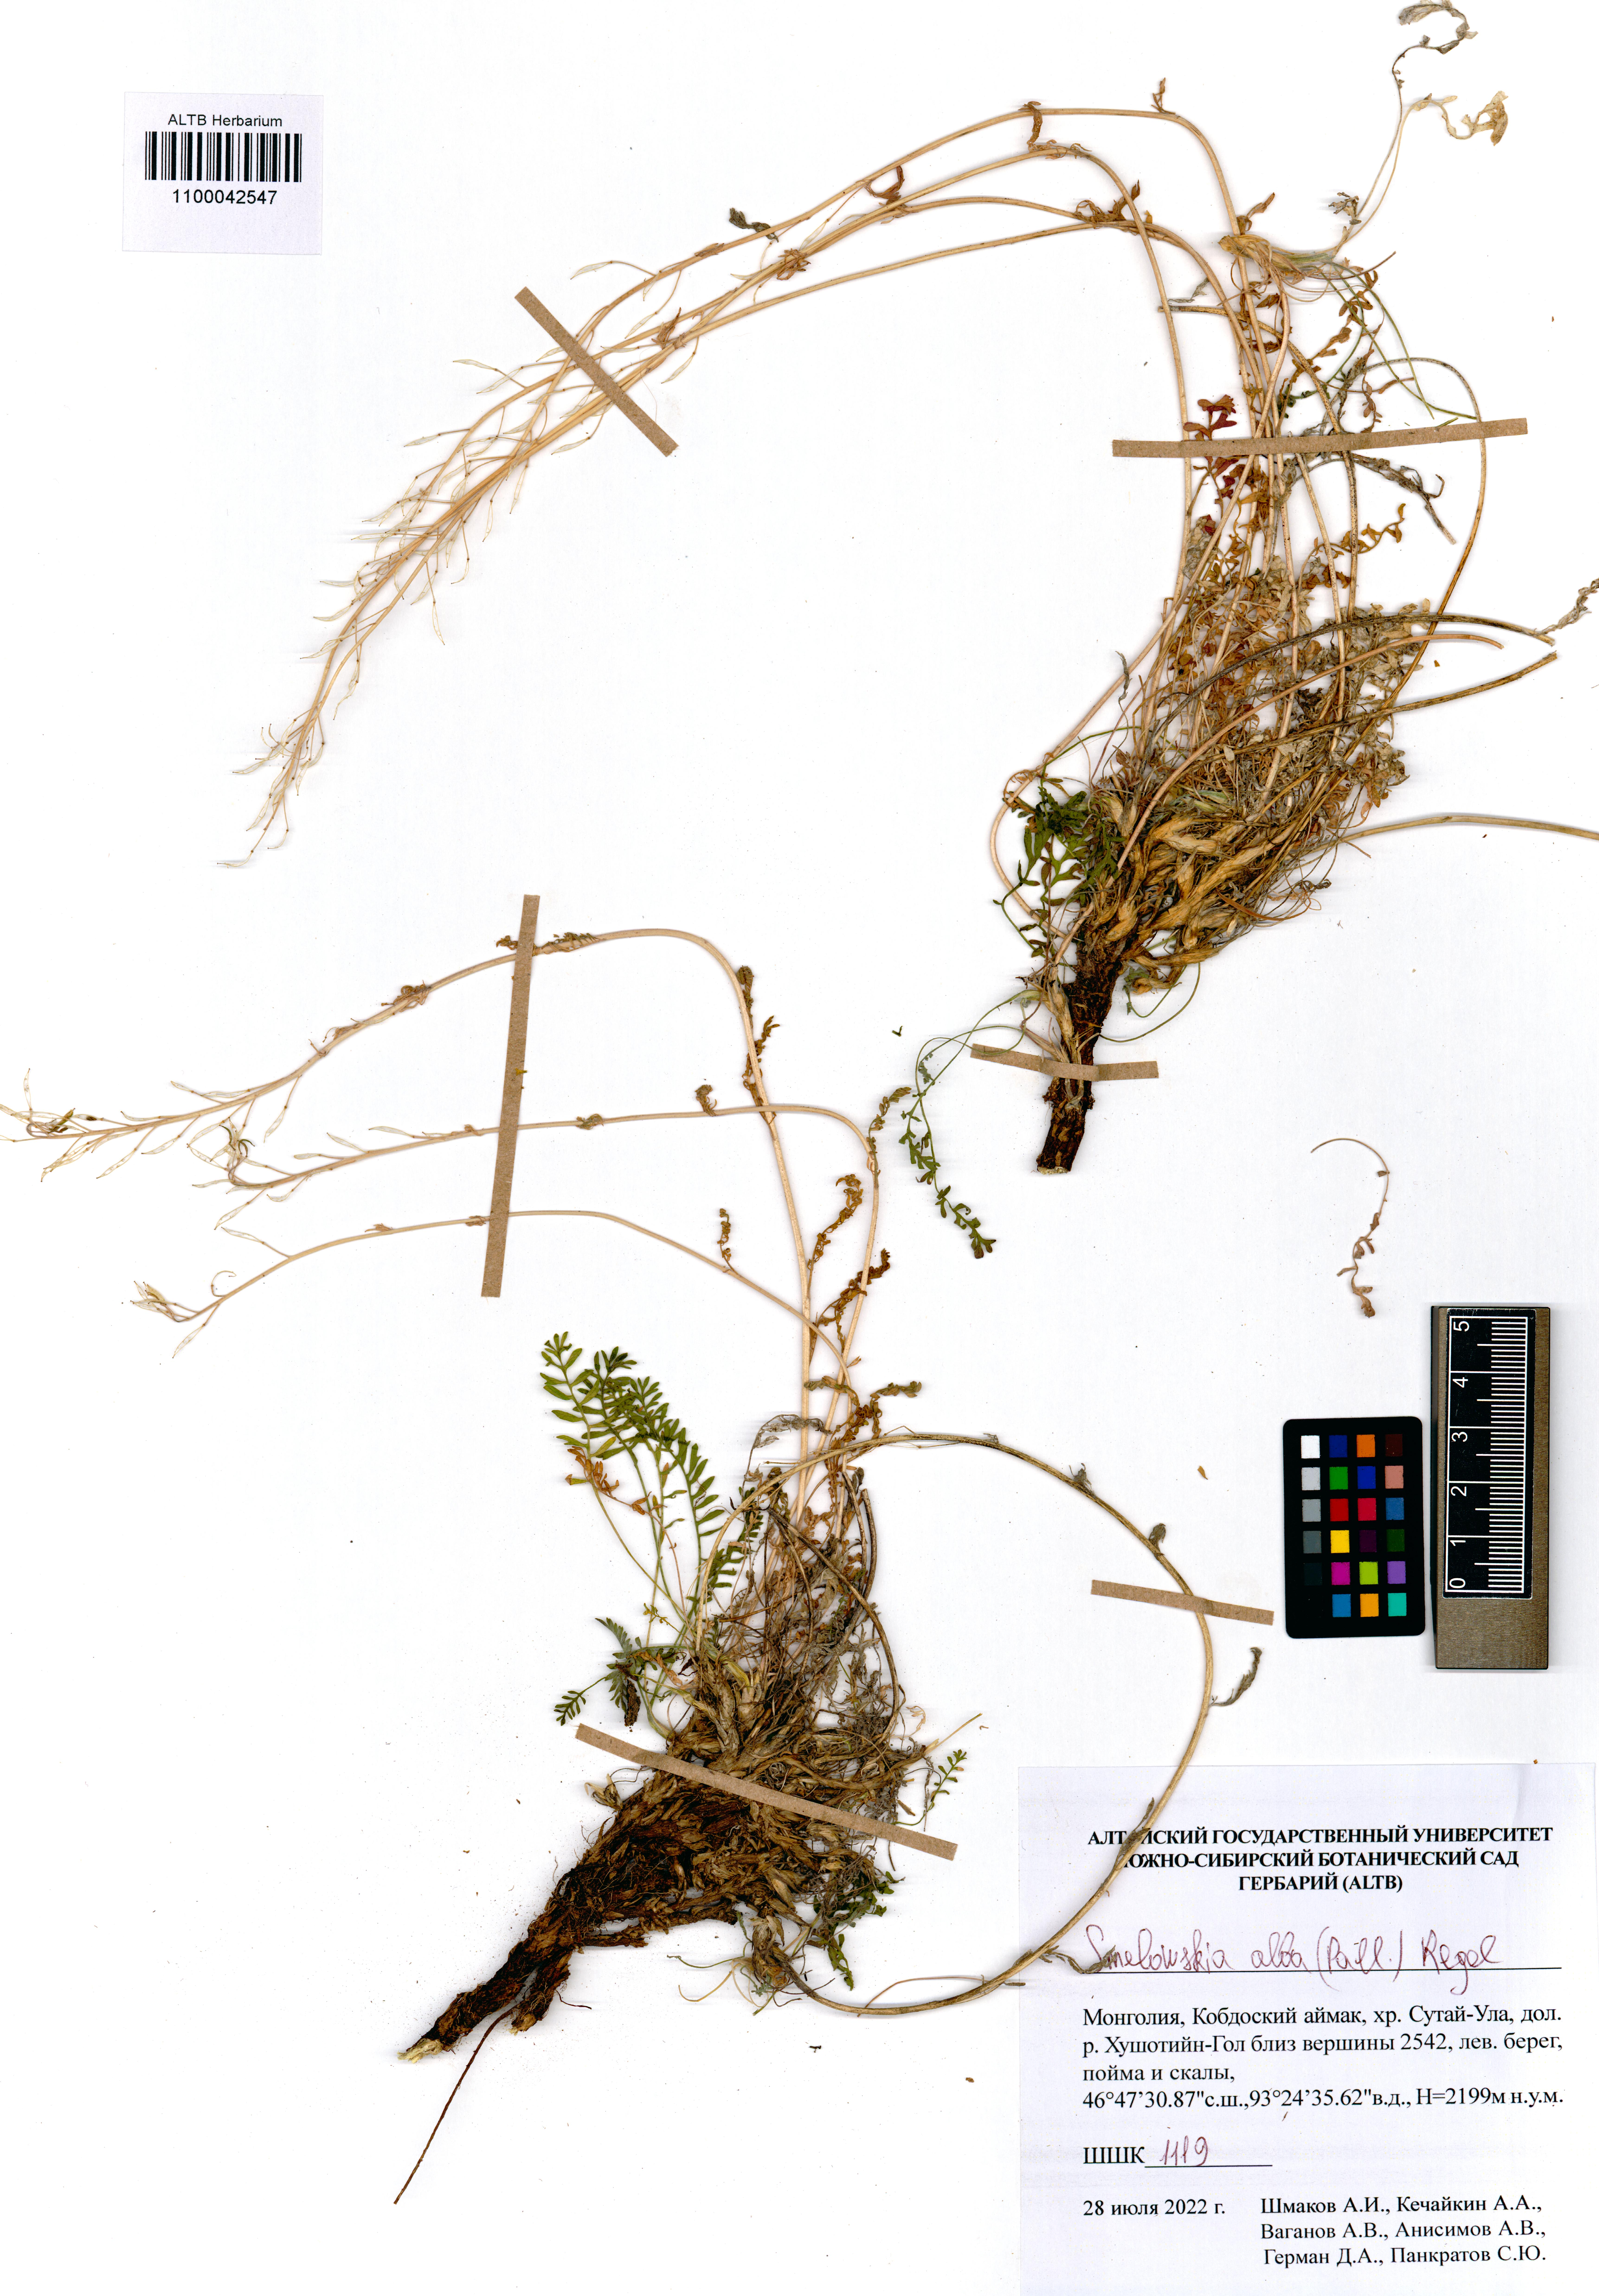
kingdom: Plantae
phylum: Tracheophyta
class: Magnoliopsida
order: Brassicales
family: Brassicaceae
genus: Smelowskia
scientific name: Smelowskia alba
